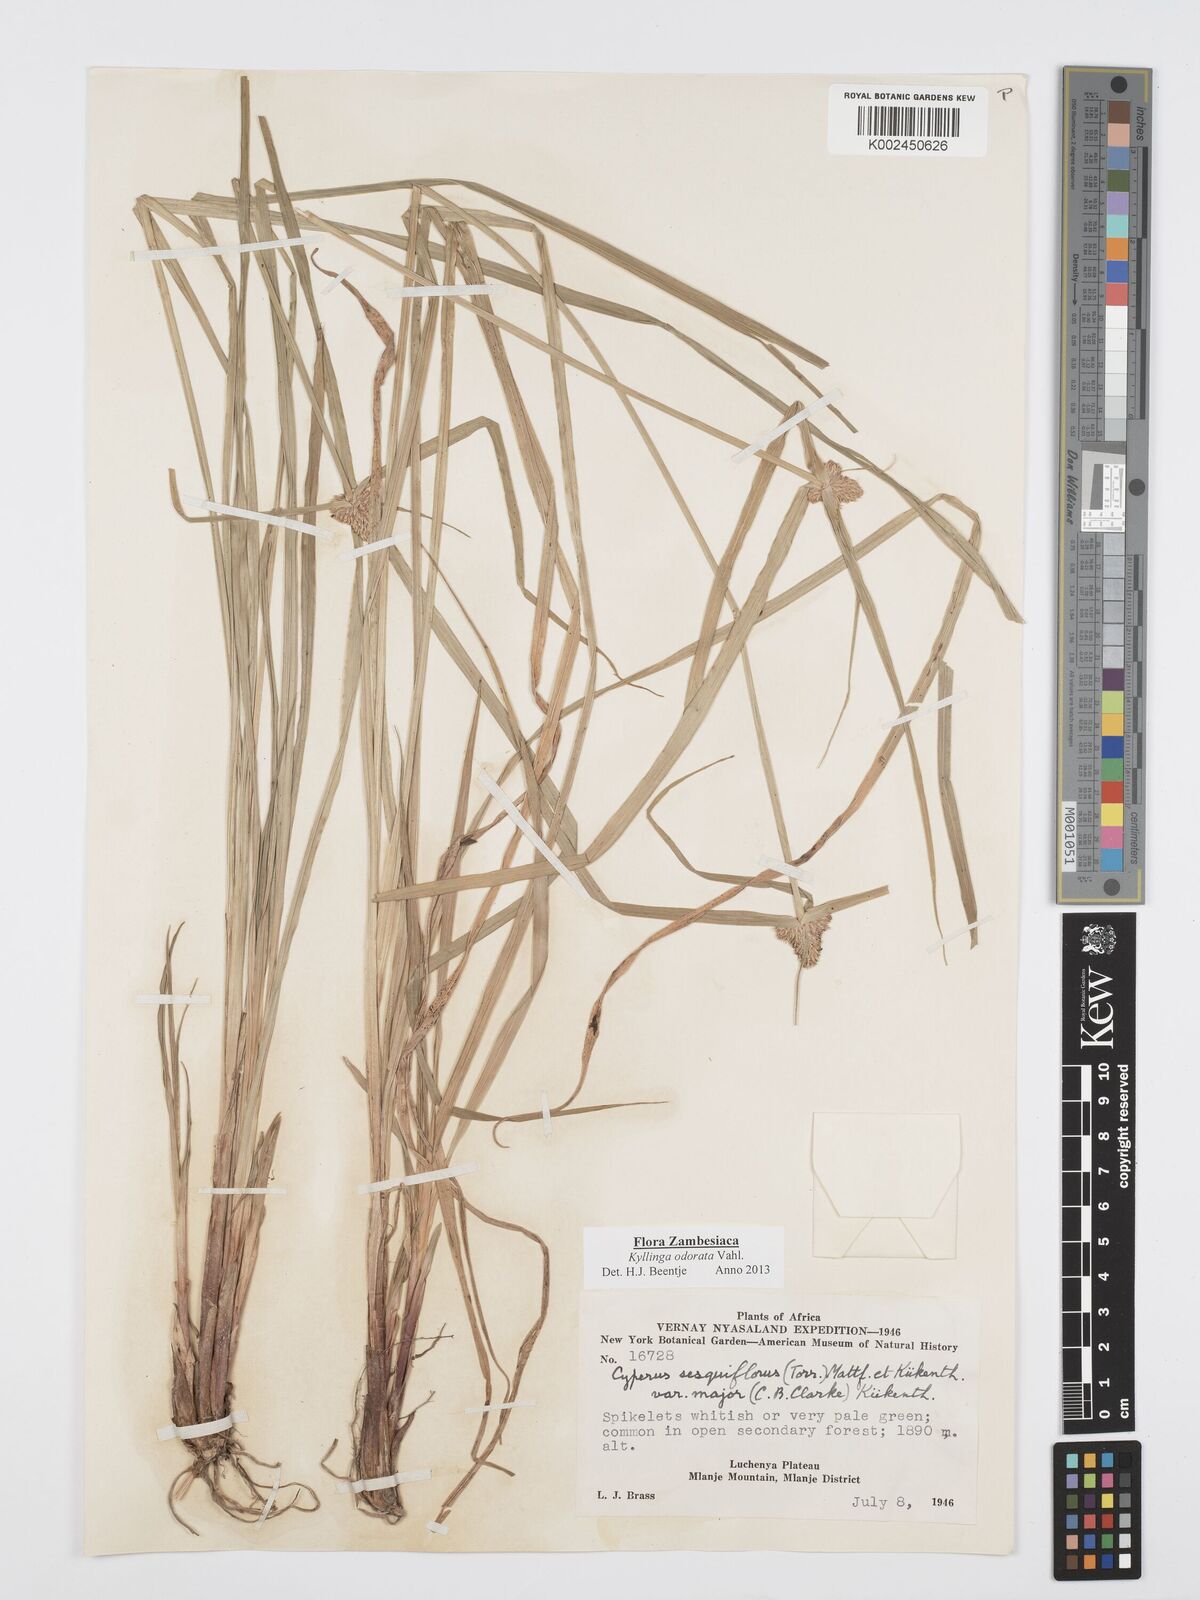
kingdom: Plantae
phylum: Tracheophyta
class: Liliopsida
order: Poales
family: Cyperaceae
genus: Cyperus
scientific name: Cyperus
